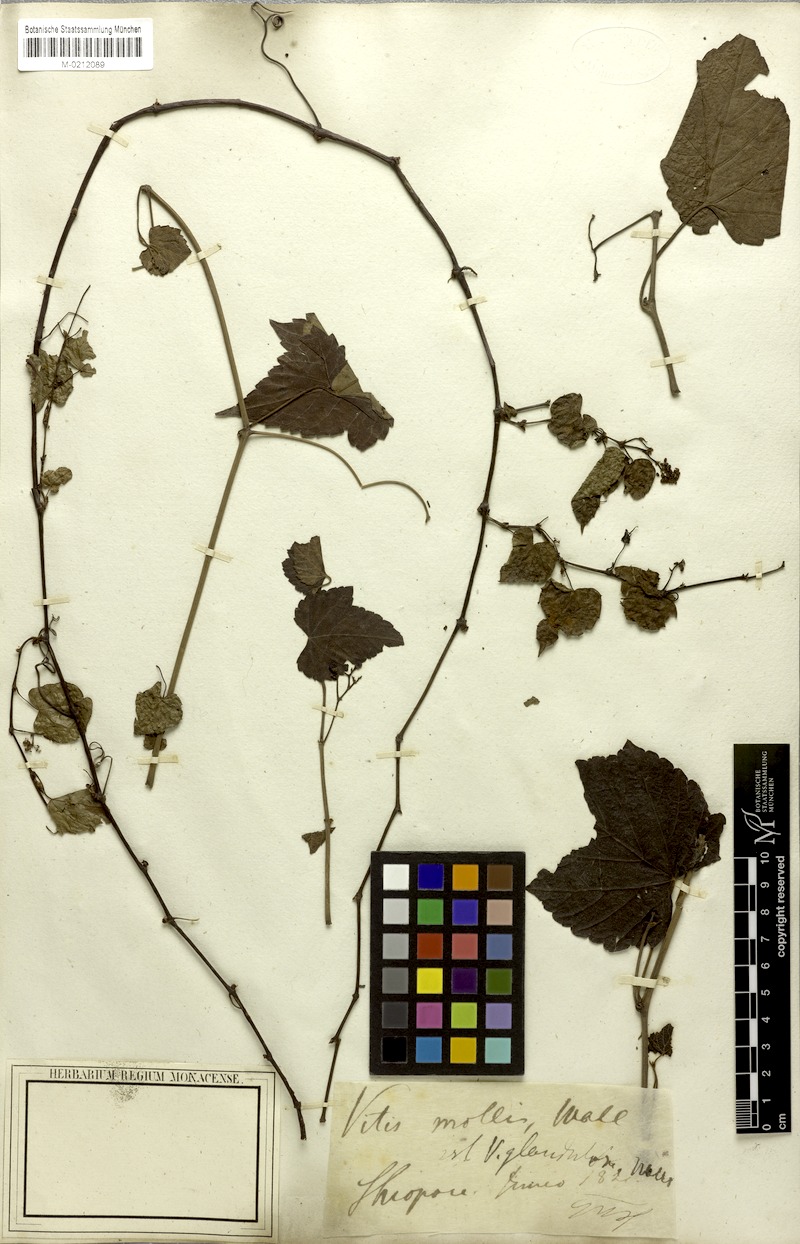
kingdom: Plantae
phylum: Tracheophyta
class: Magnoliopsida
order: Vitales
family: Vitaceae
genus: Parthenocissus
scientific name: Parthenocissus semicordata
